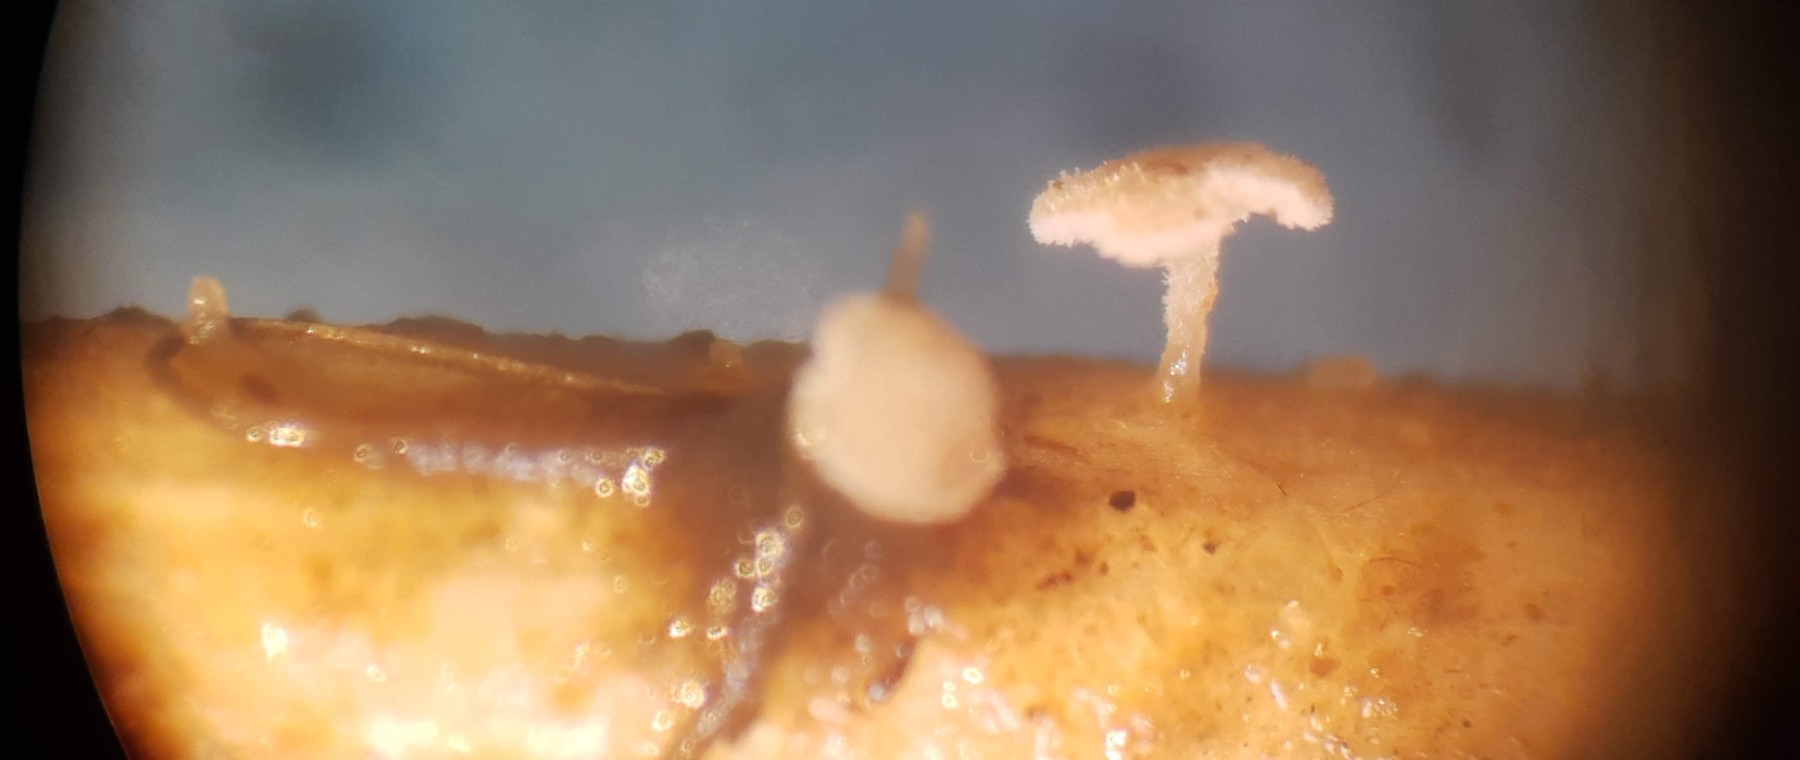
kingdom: Fungi
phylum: Basidiomycota
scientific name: Basidiomycota
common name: basidiesvampe
